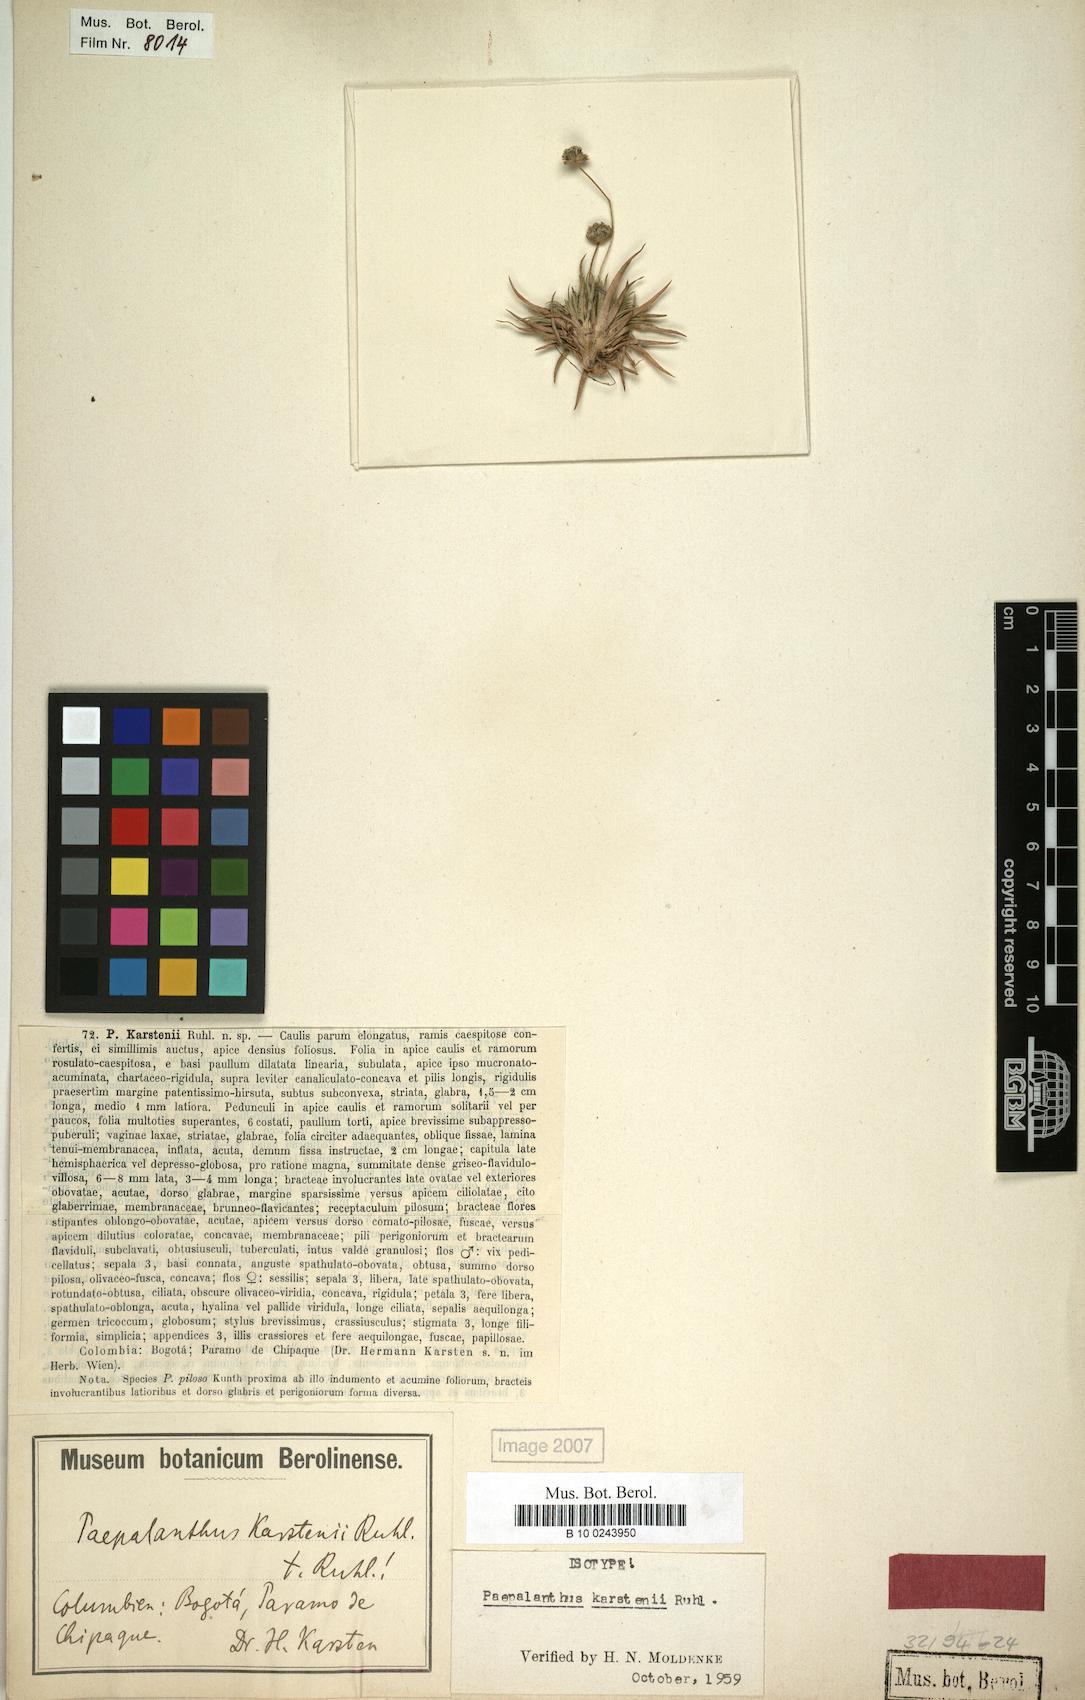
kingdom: Plantae
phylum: Tracheophyta
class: Liliopsida
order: Poales
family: Eriocaulaceae
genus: Paepalanthus
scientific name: Paepalanthus karstenii
